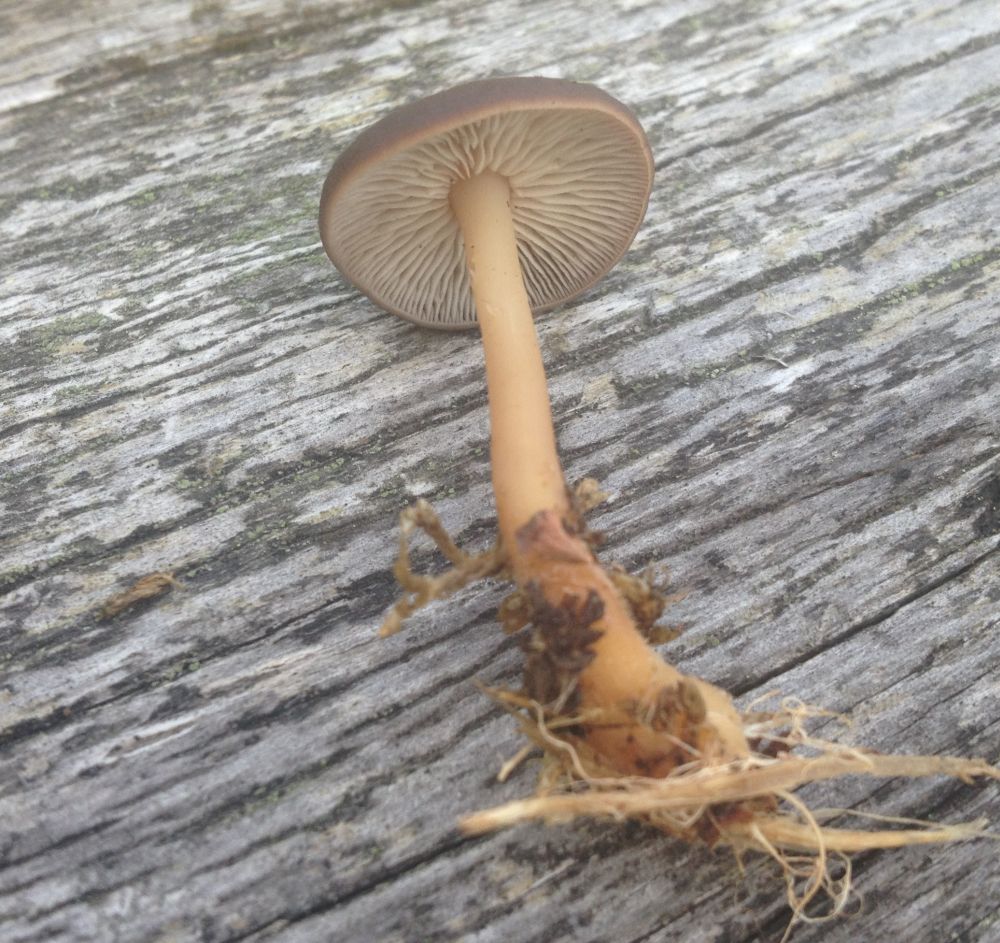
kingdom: Fungi
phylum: Basidiomycota
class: Agaricomycetes
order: Agaricales
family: Omphalotaceae
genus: Gymnopus
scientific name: Gymnopus ocior
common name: mørk fladhat
